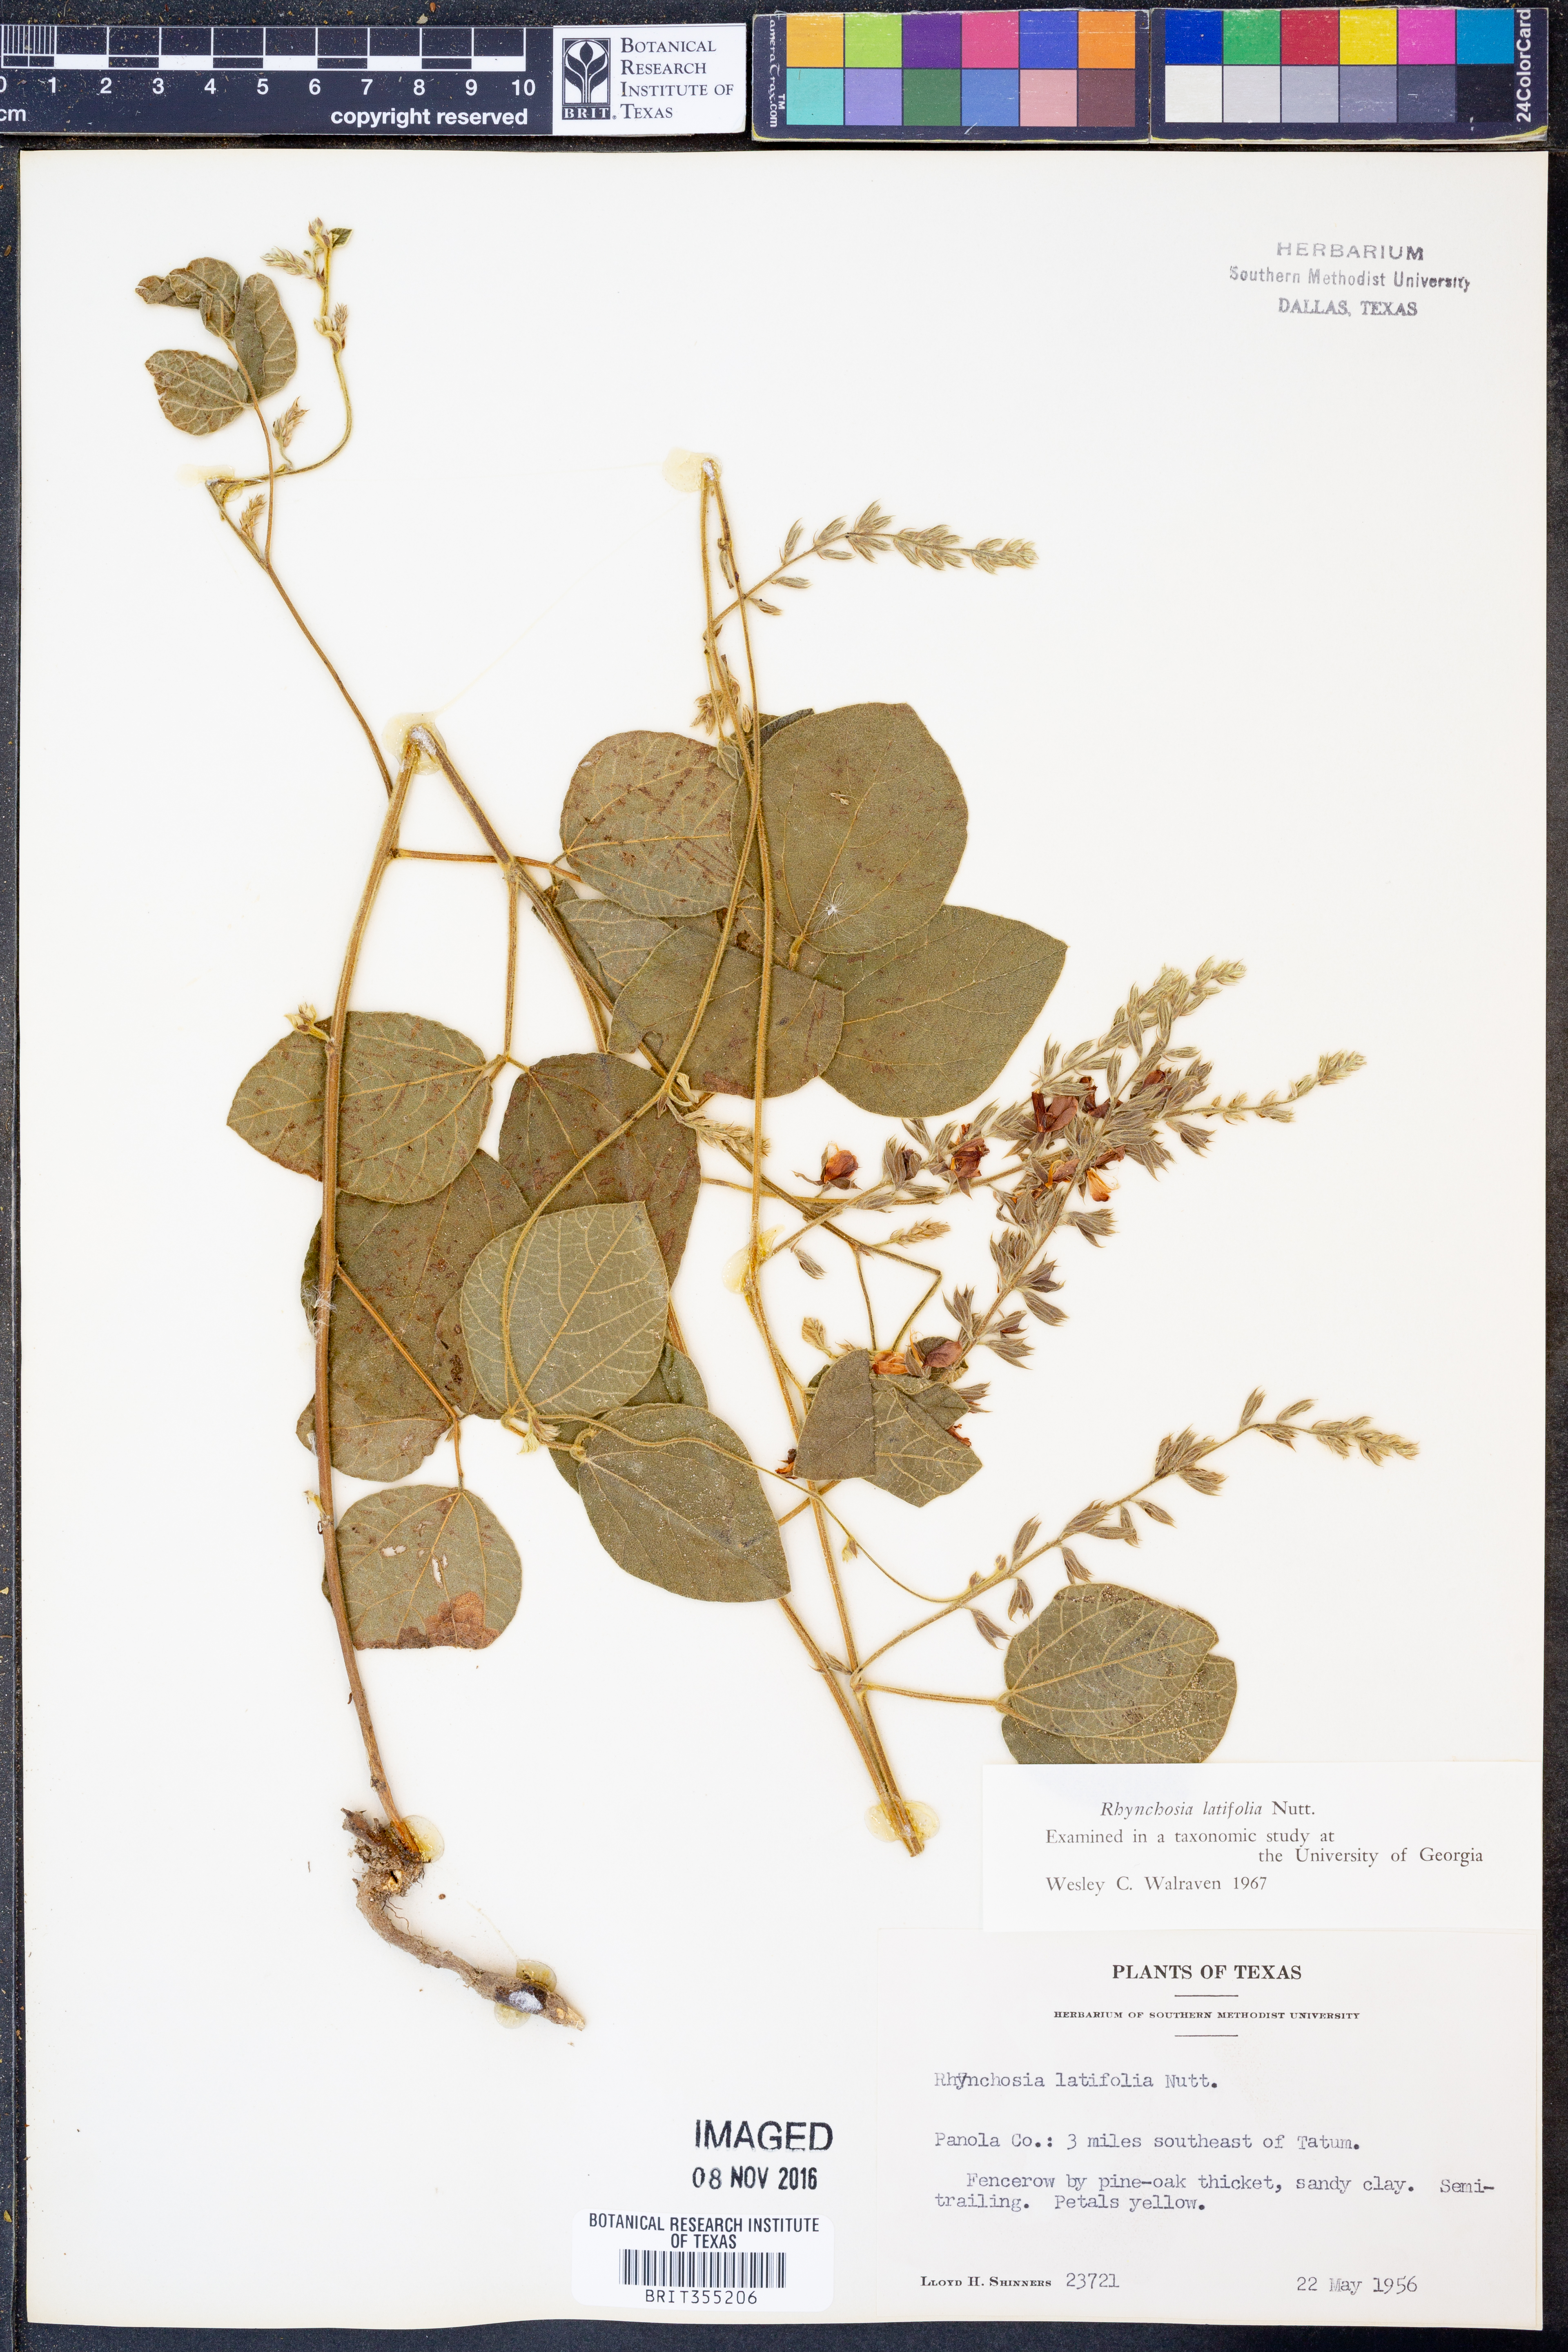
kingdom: Plantae
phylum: Tracheophyta
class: Magnoliopsida
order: Fabales
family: Fabaceae
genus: Rhynchosia
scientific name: Rhynchosia latifolia
